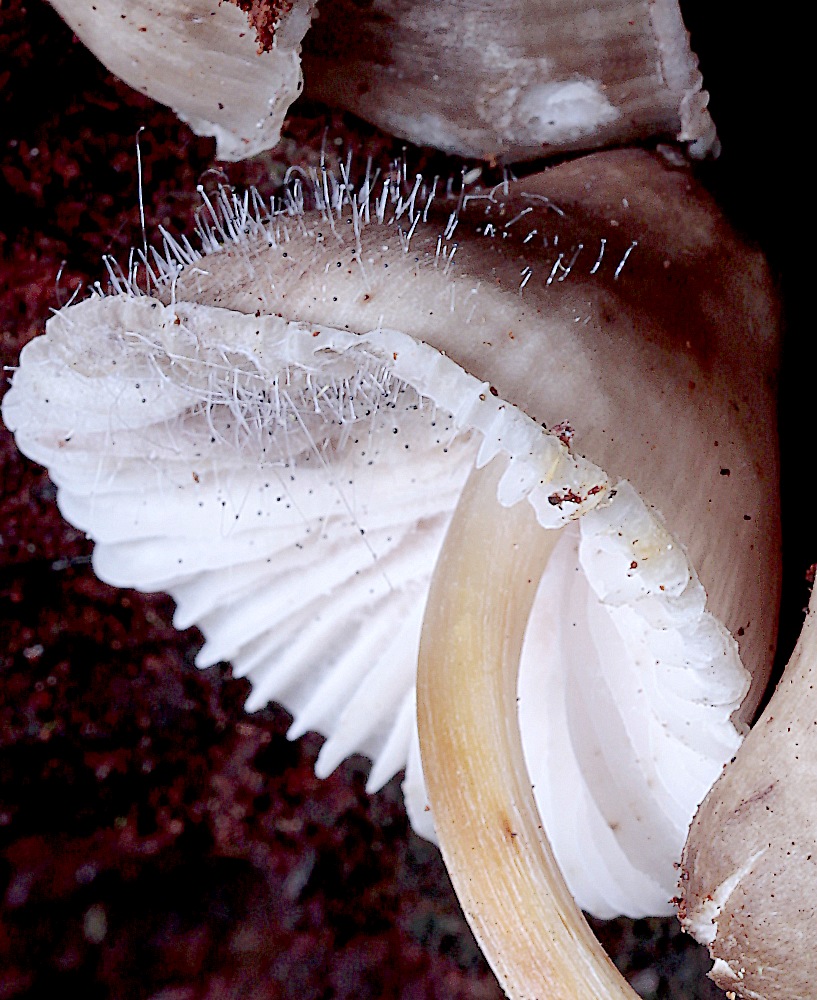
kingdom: Fungi
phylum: Mucoromycota
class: Mucoromycetes
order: Mucorales
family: Phycomycetaceae
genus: Spinellus
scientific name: Spinellus fusiger
